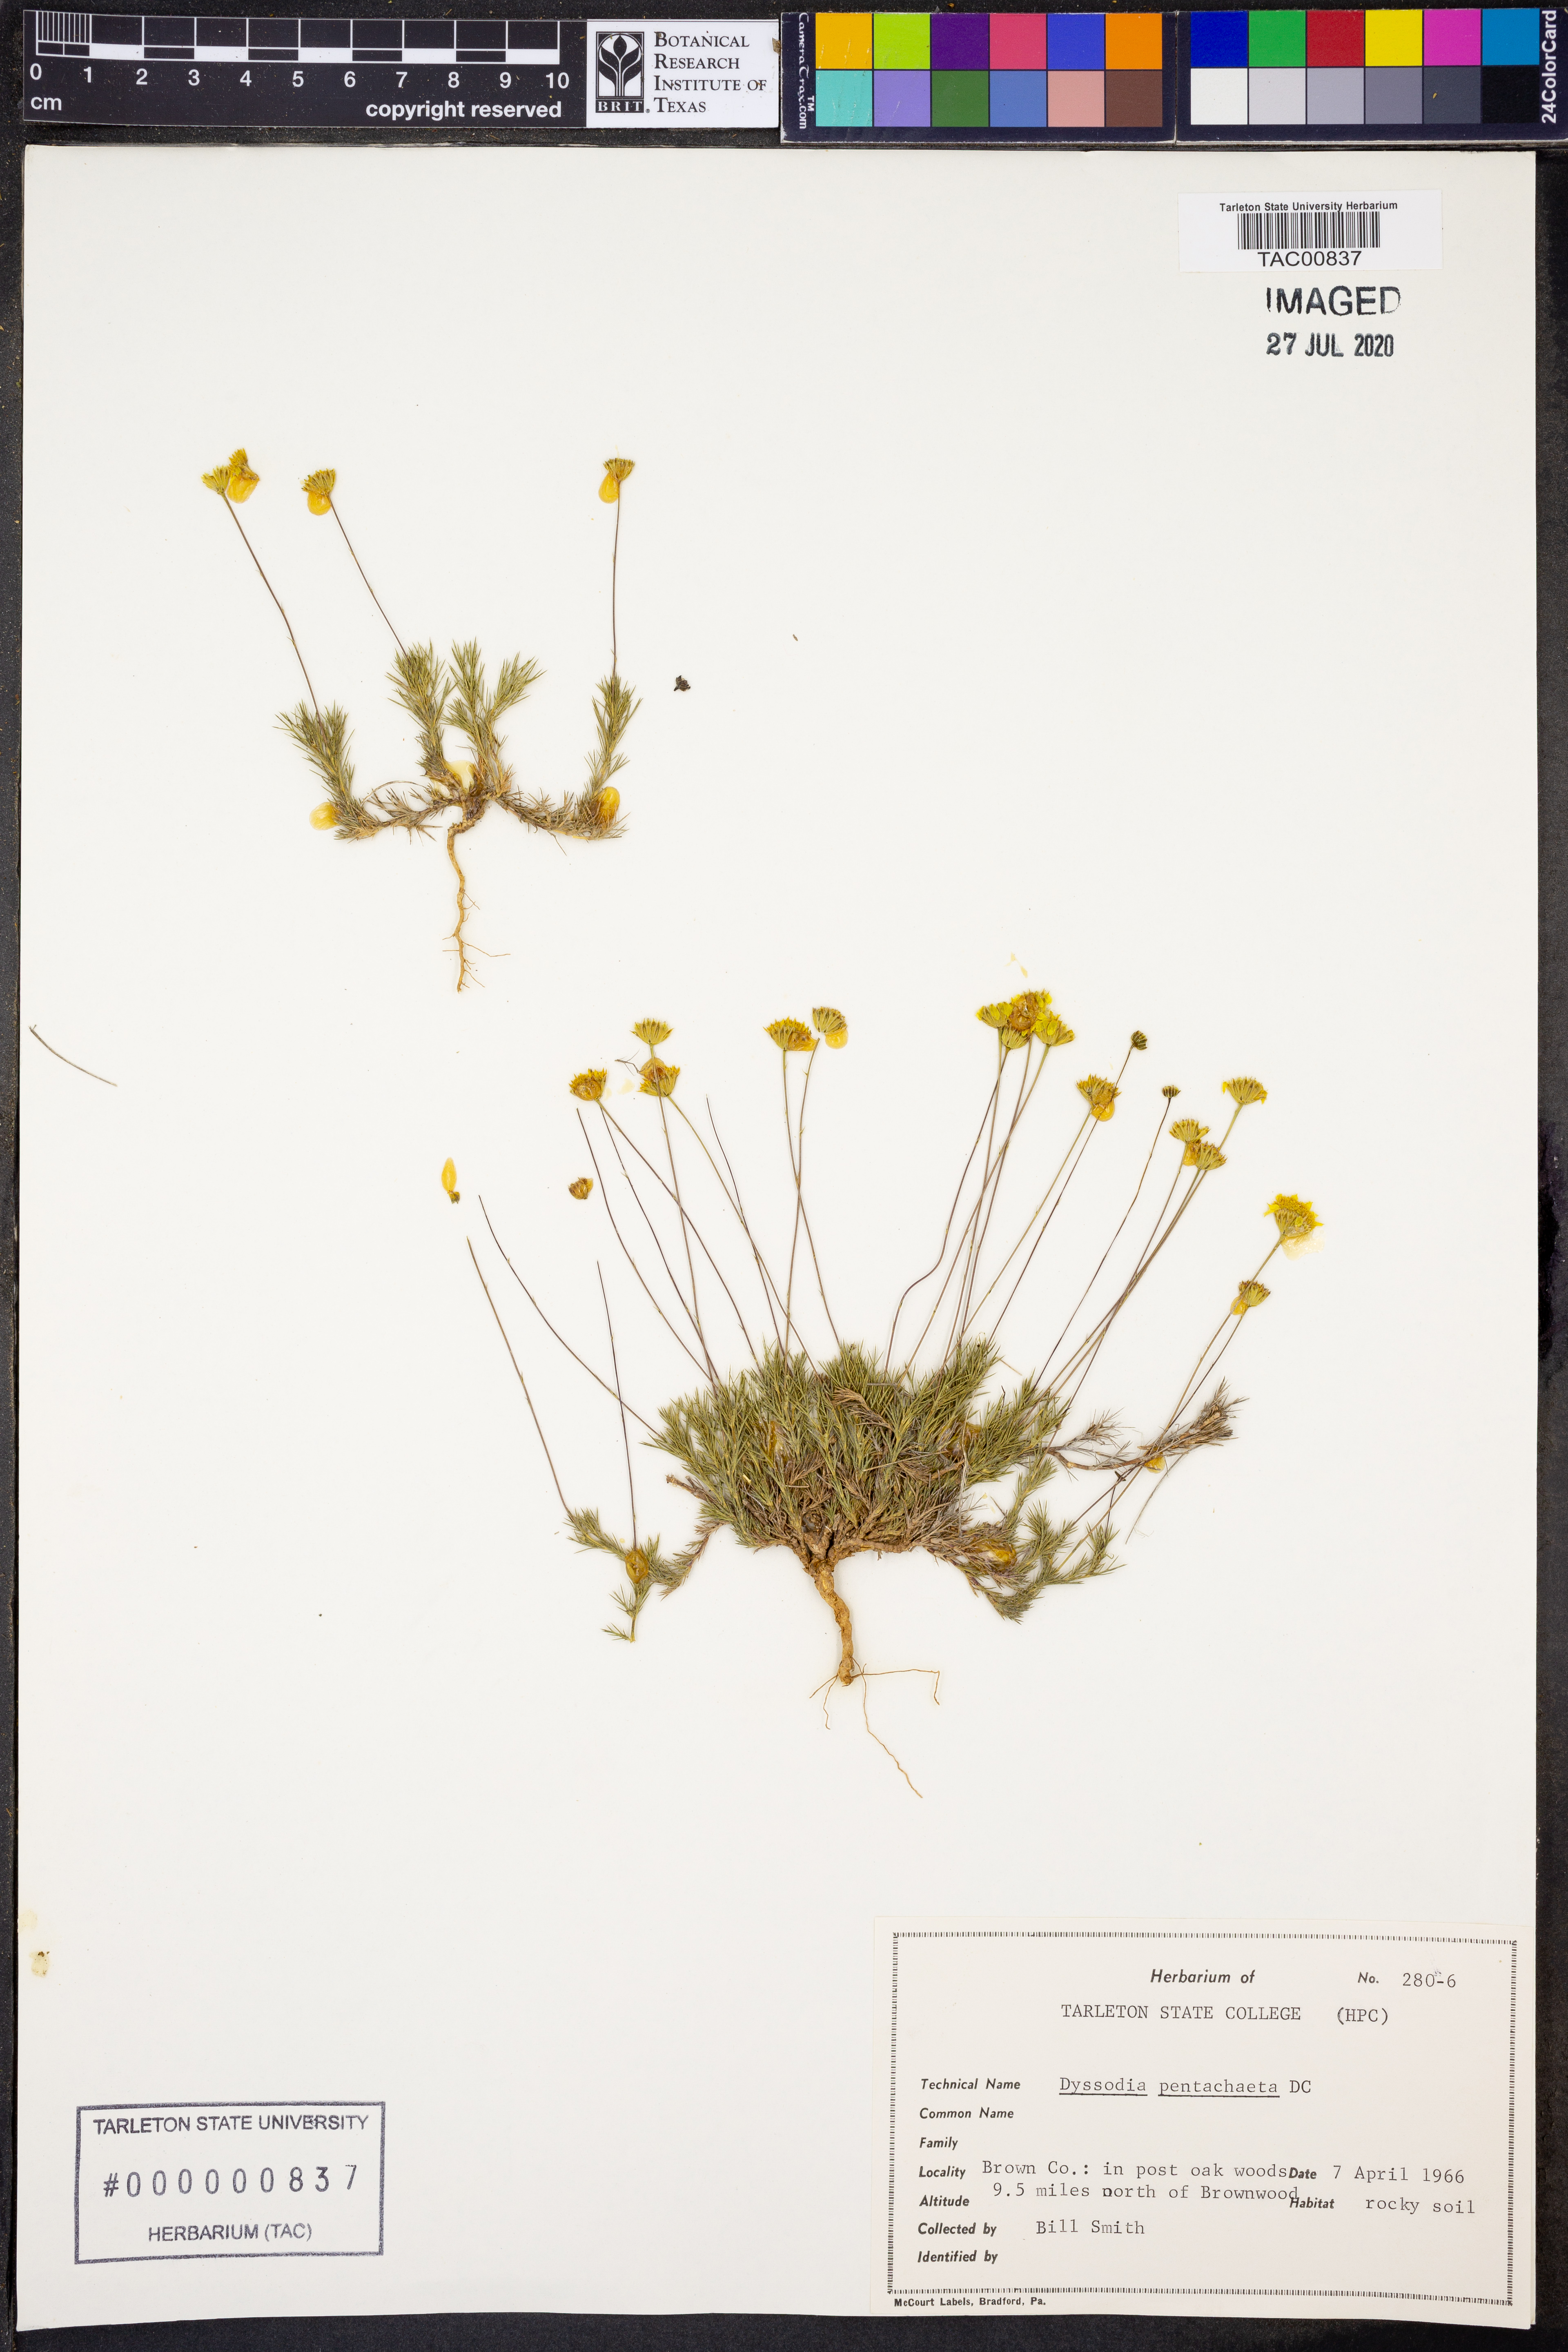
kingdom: Plantae
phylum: Tracheophyta
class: Magnoliopsida
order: Asterales
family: Asteraceae
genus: Thymophylla
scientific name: Thymophylla pentachaeta
